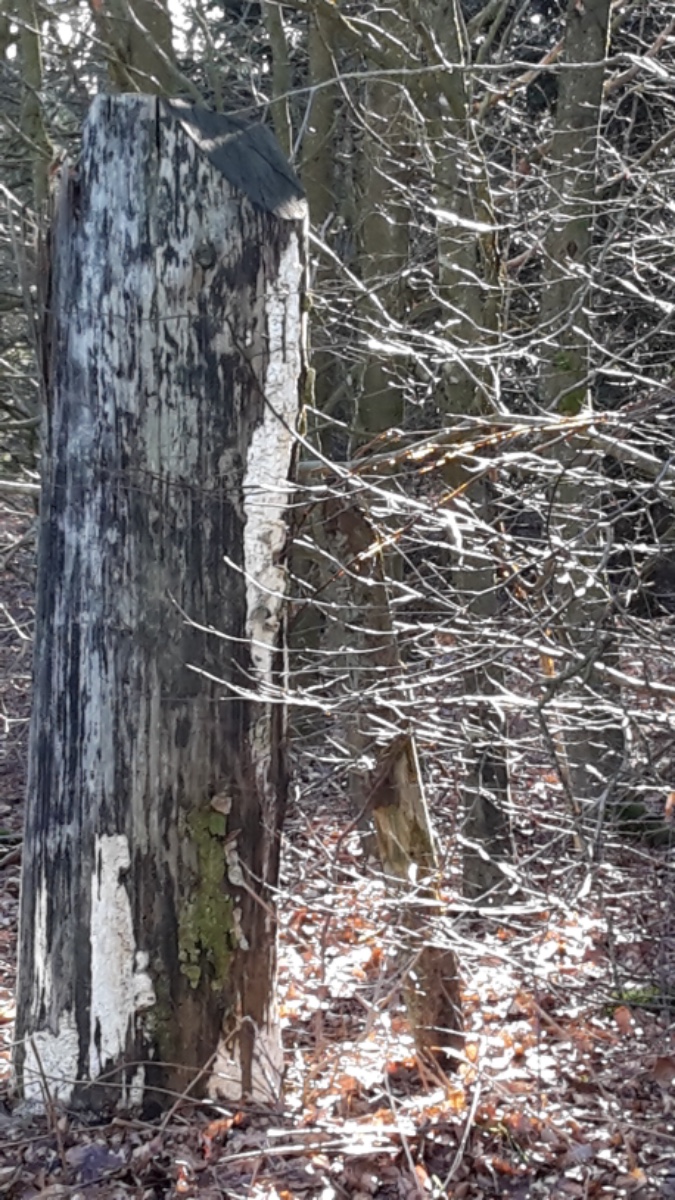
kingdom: Fungi
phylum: Basidiomycota
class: Agaricomycetes
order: Polyporales
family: Fomitopsidaceae
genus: Daedalea
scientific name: Daedalea xantha
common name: gul sejporesvamp
